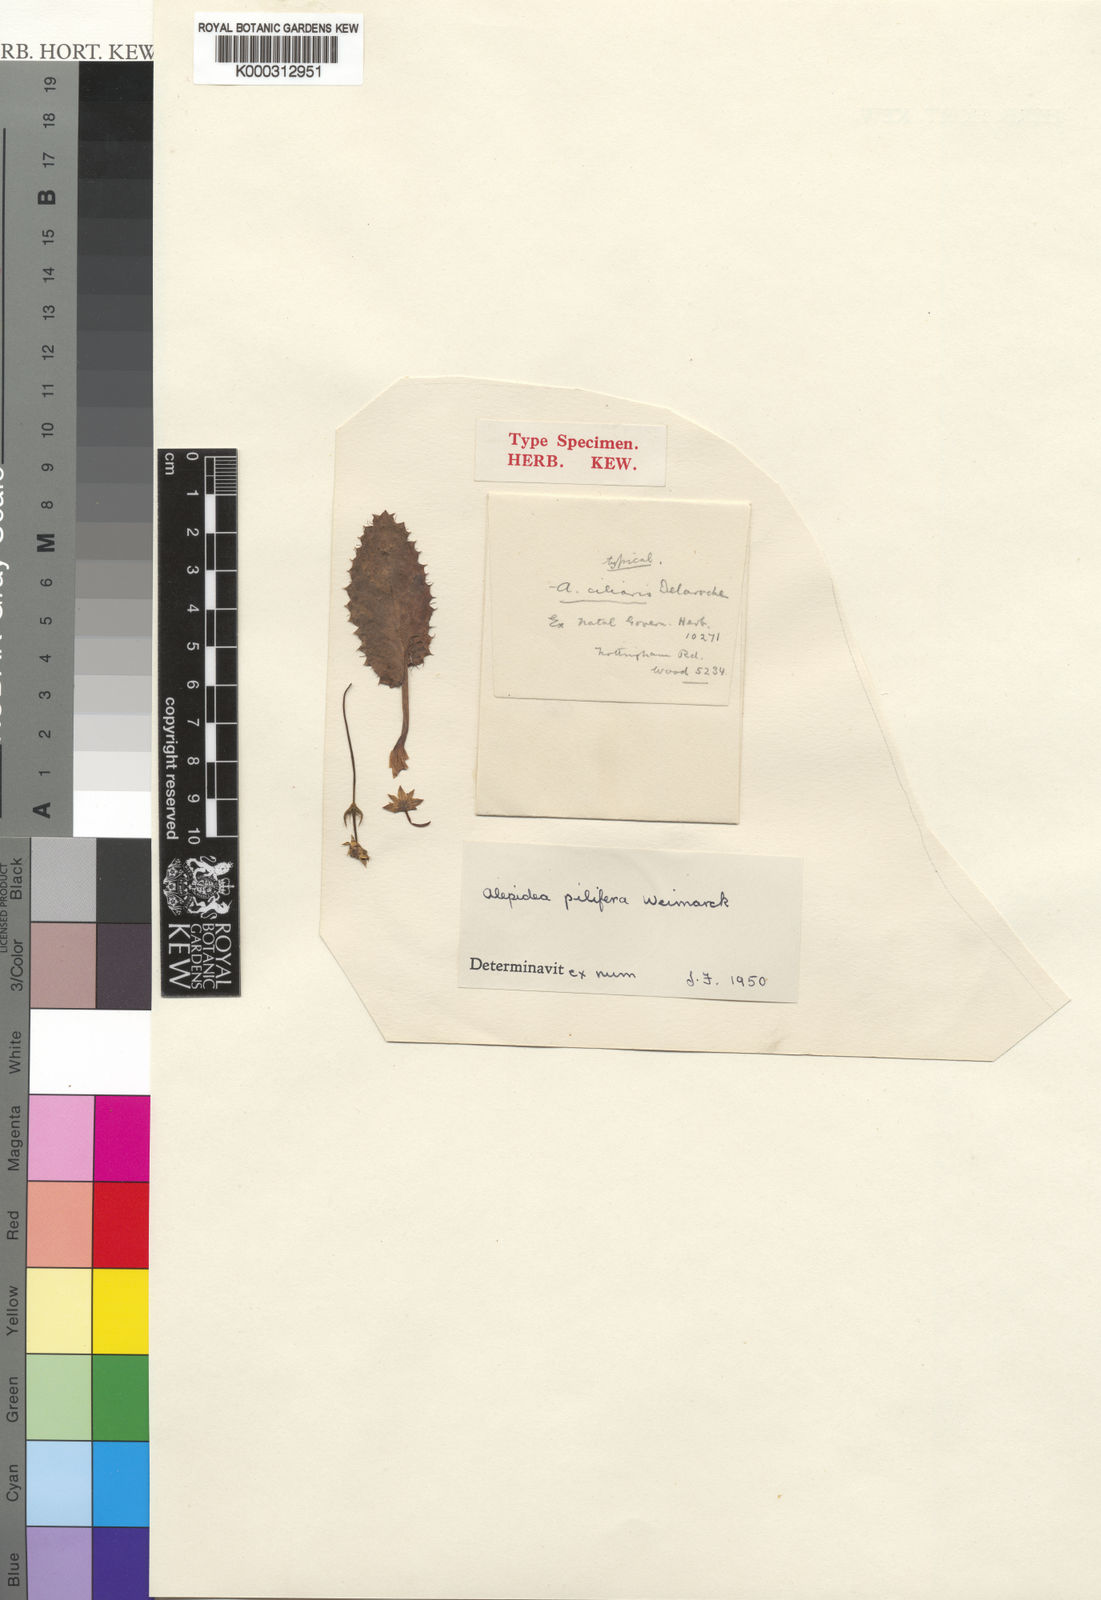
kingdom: Plantae
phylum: Tracheophyta
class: Magnoliopsida
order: Apiales
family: Apiaceae
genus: Alepidea
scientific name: Alepidea pilifera
